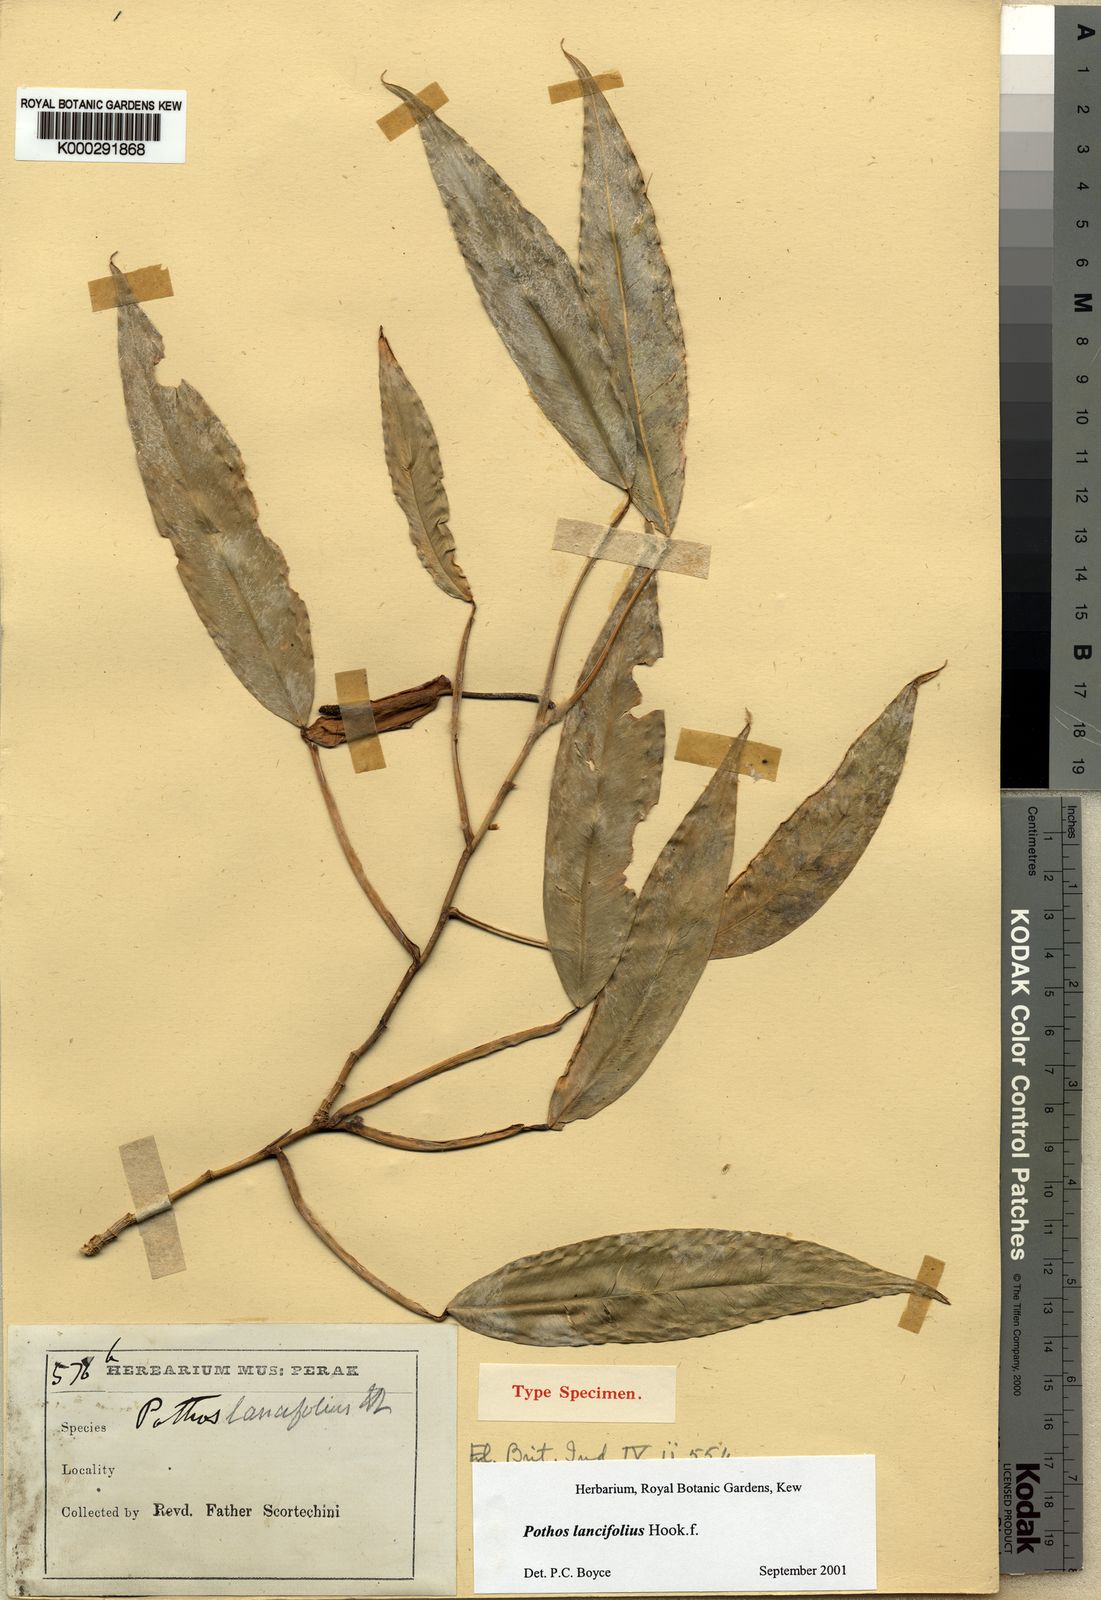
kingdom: Plantae
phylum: Tracheophyta
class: Liliopsida
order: Alismatales
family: Araceae
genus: Pothos
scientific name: Pothos lancifolius
